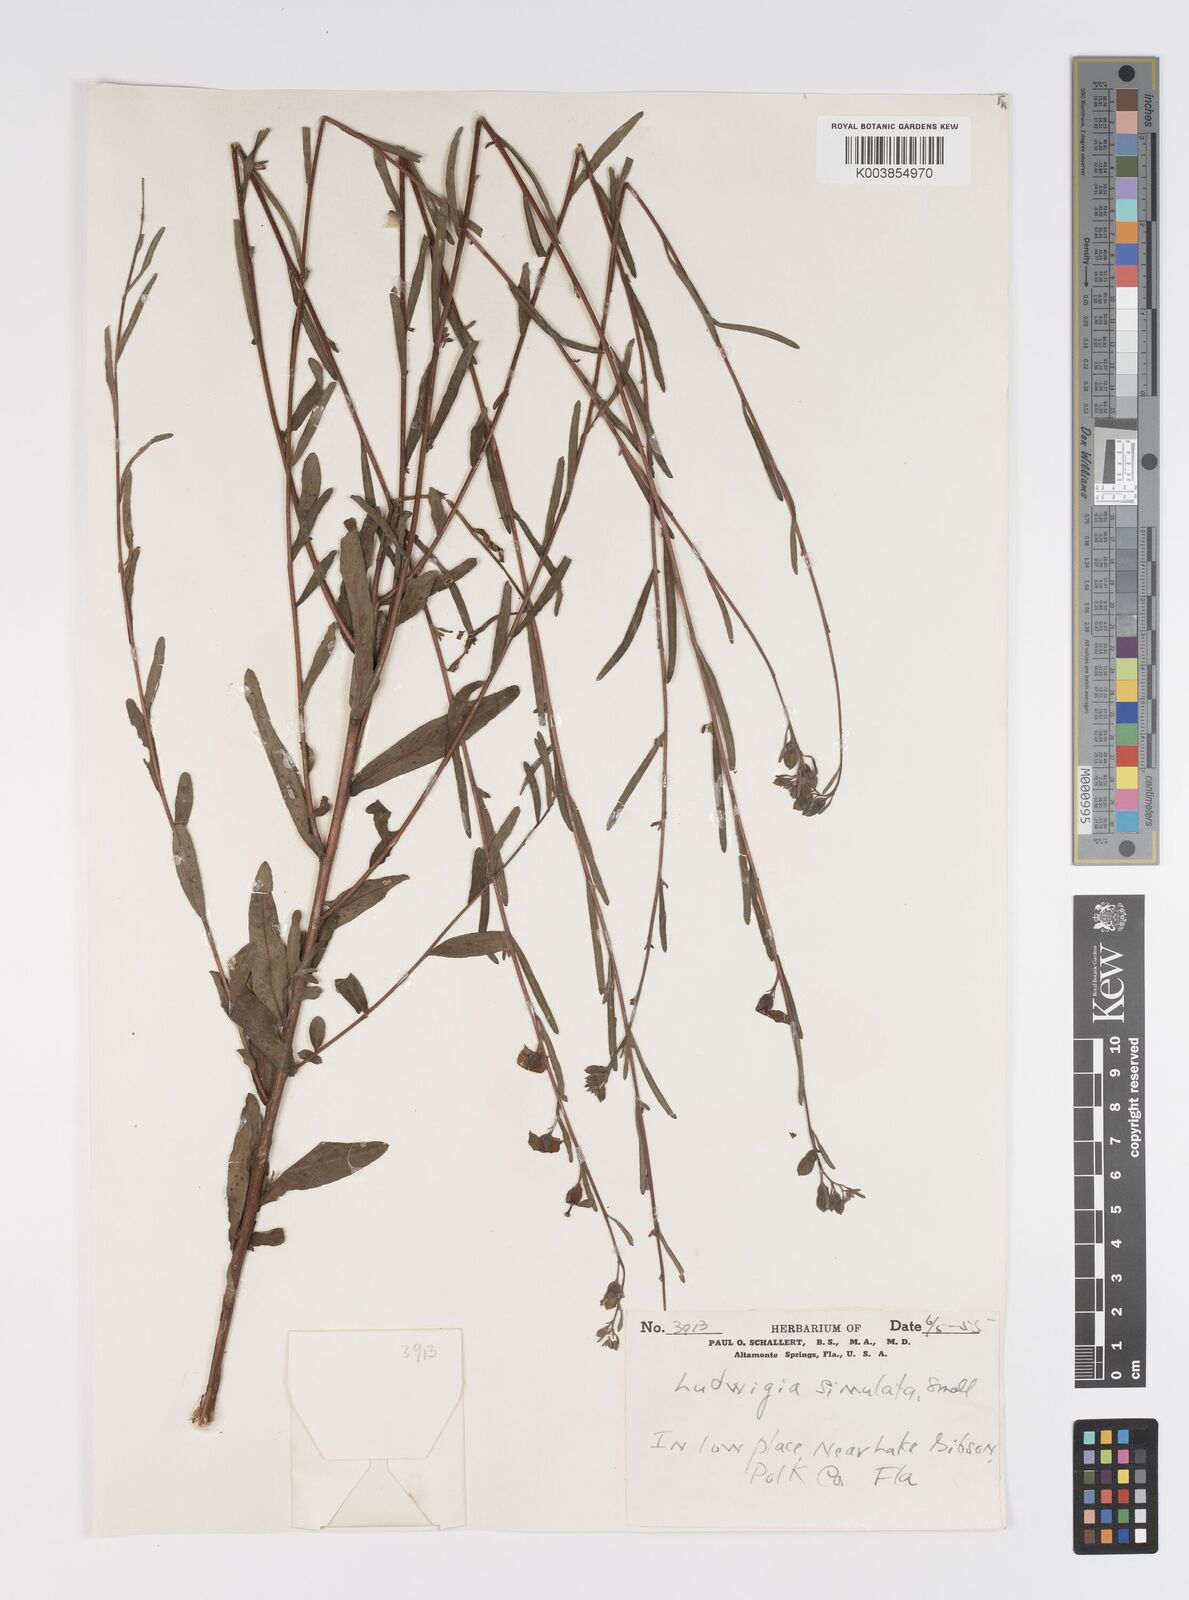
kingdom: Plantae
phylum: Tracheophyta
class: Magnoliopsida
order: Myrtales
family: Onagraceae
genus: Ludwigia
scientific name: Ludwigia alata
